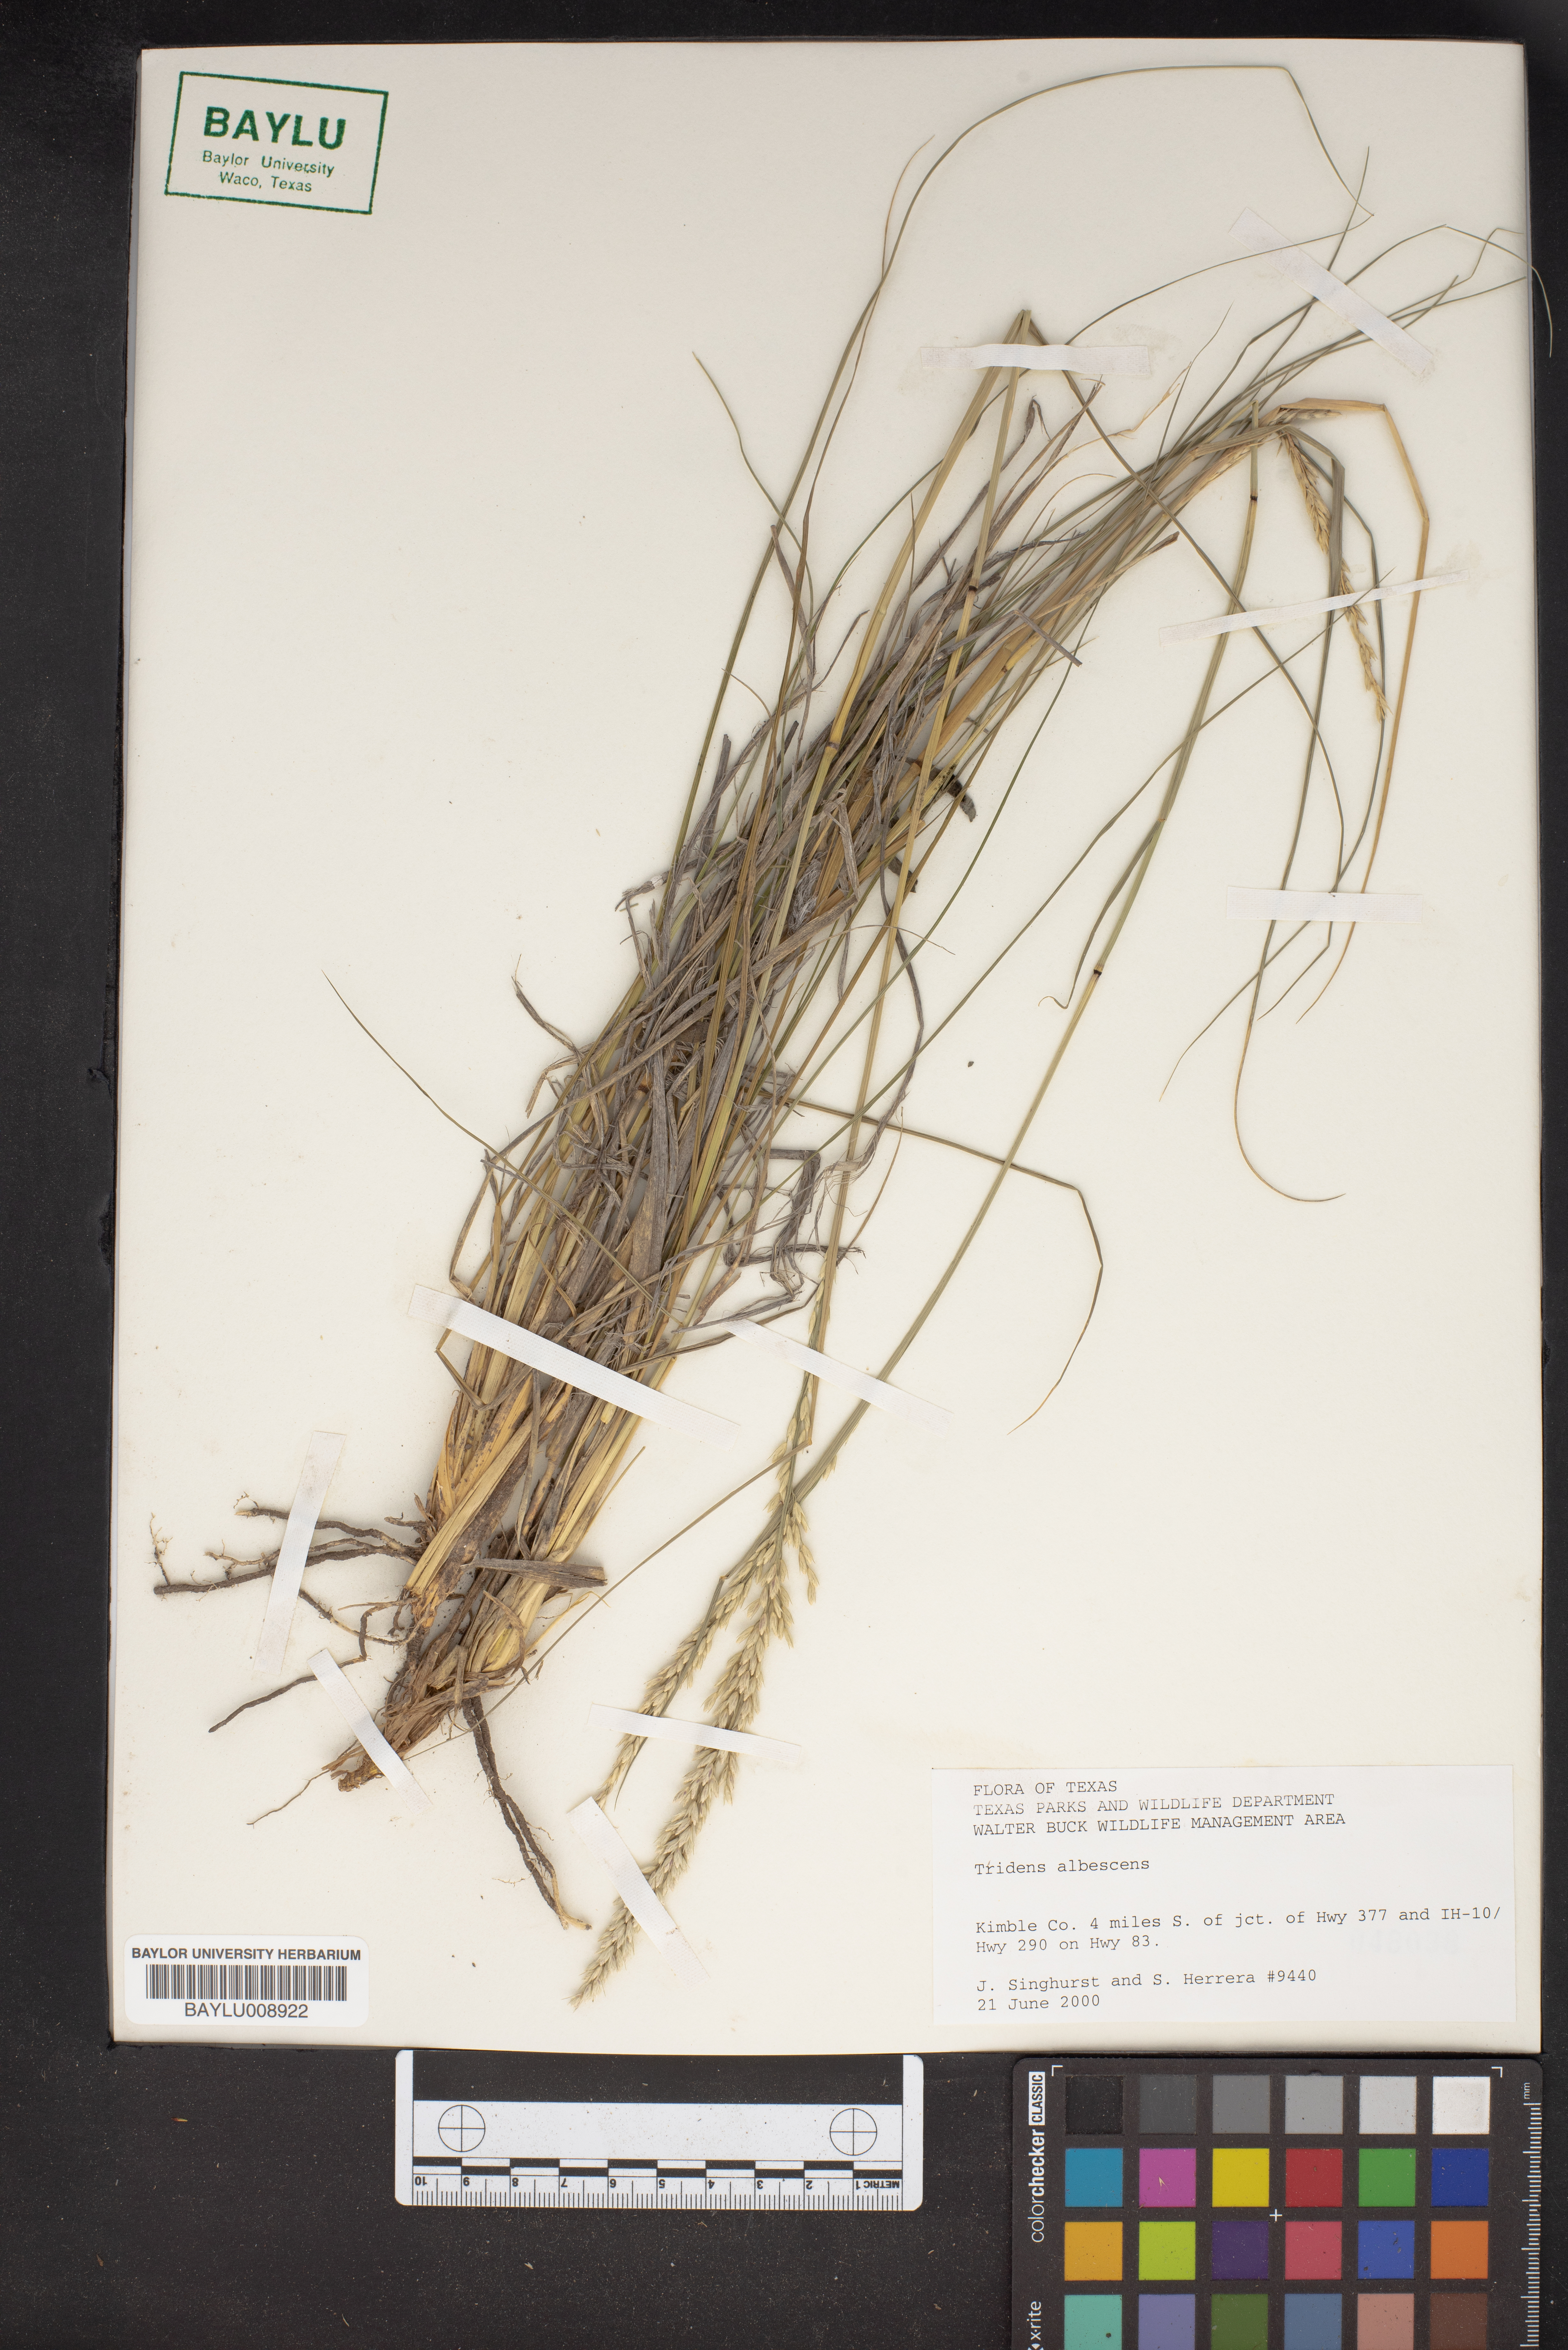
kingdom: Plantae
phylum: Tracheophyta
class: Liliopsida
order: Poales
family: Poaceae
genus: Tridens
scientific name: Tridens albescens
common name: White tridens
